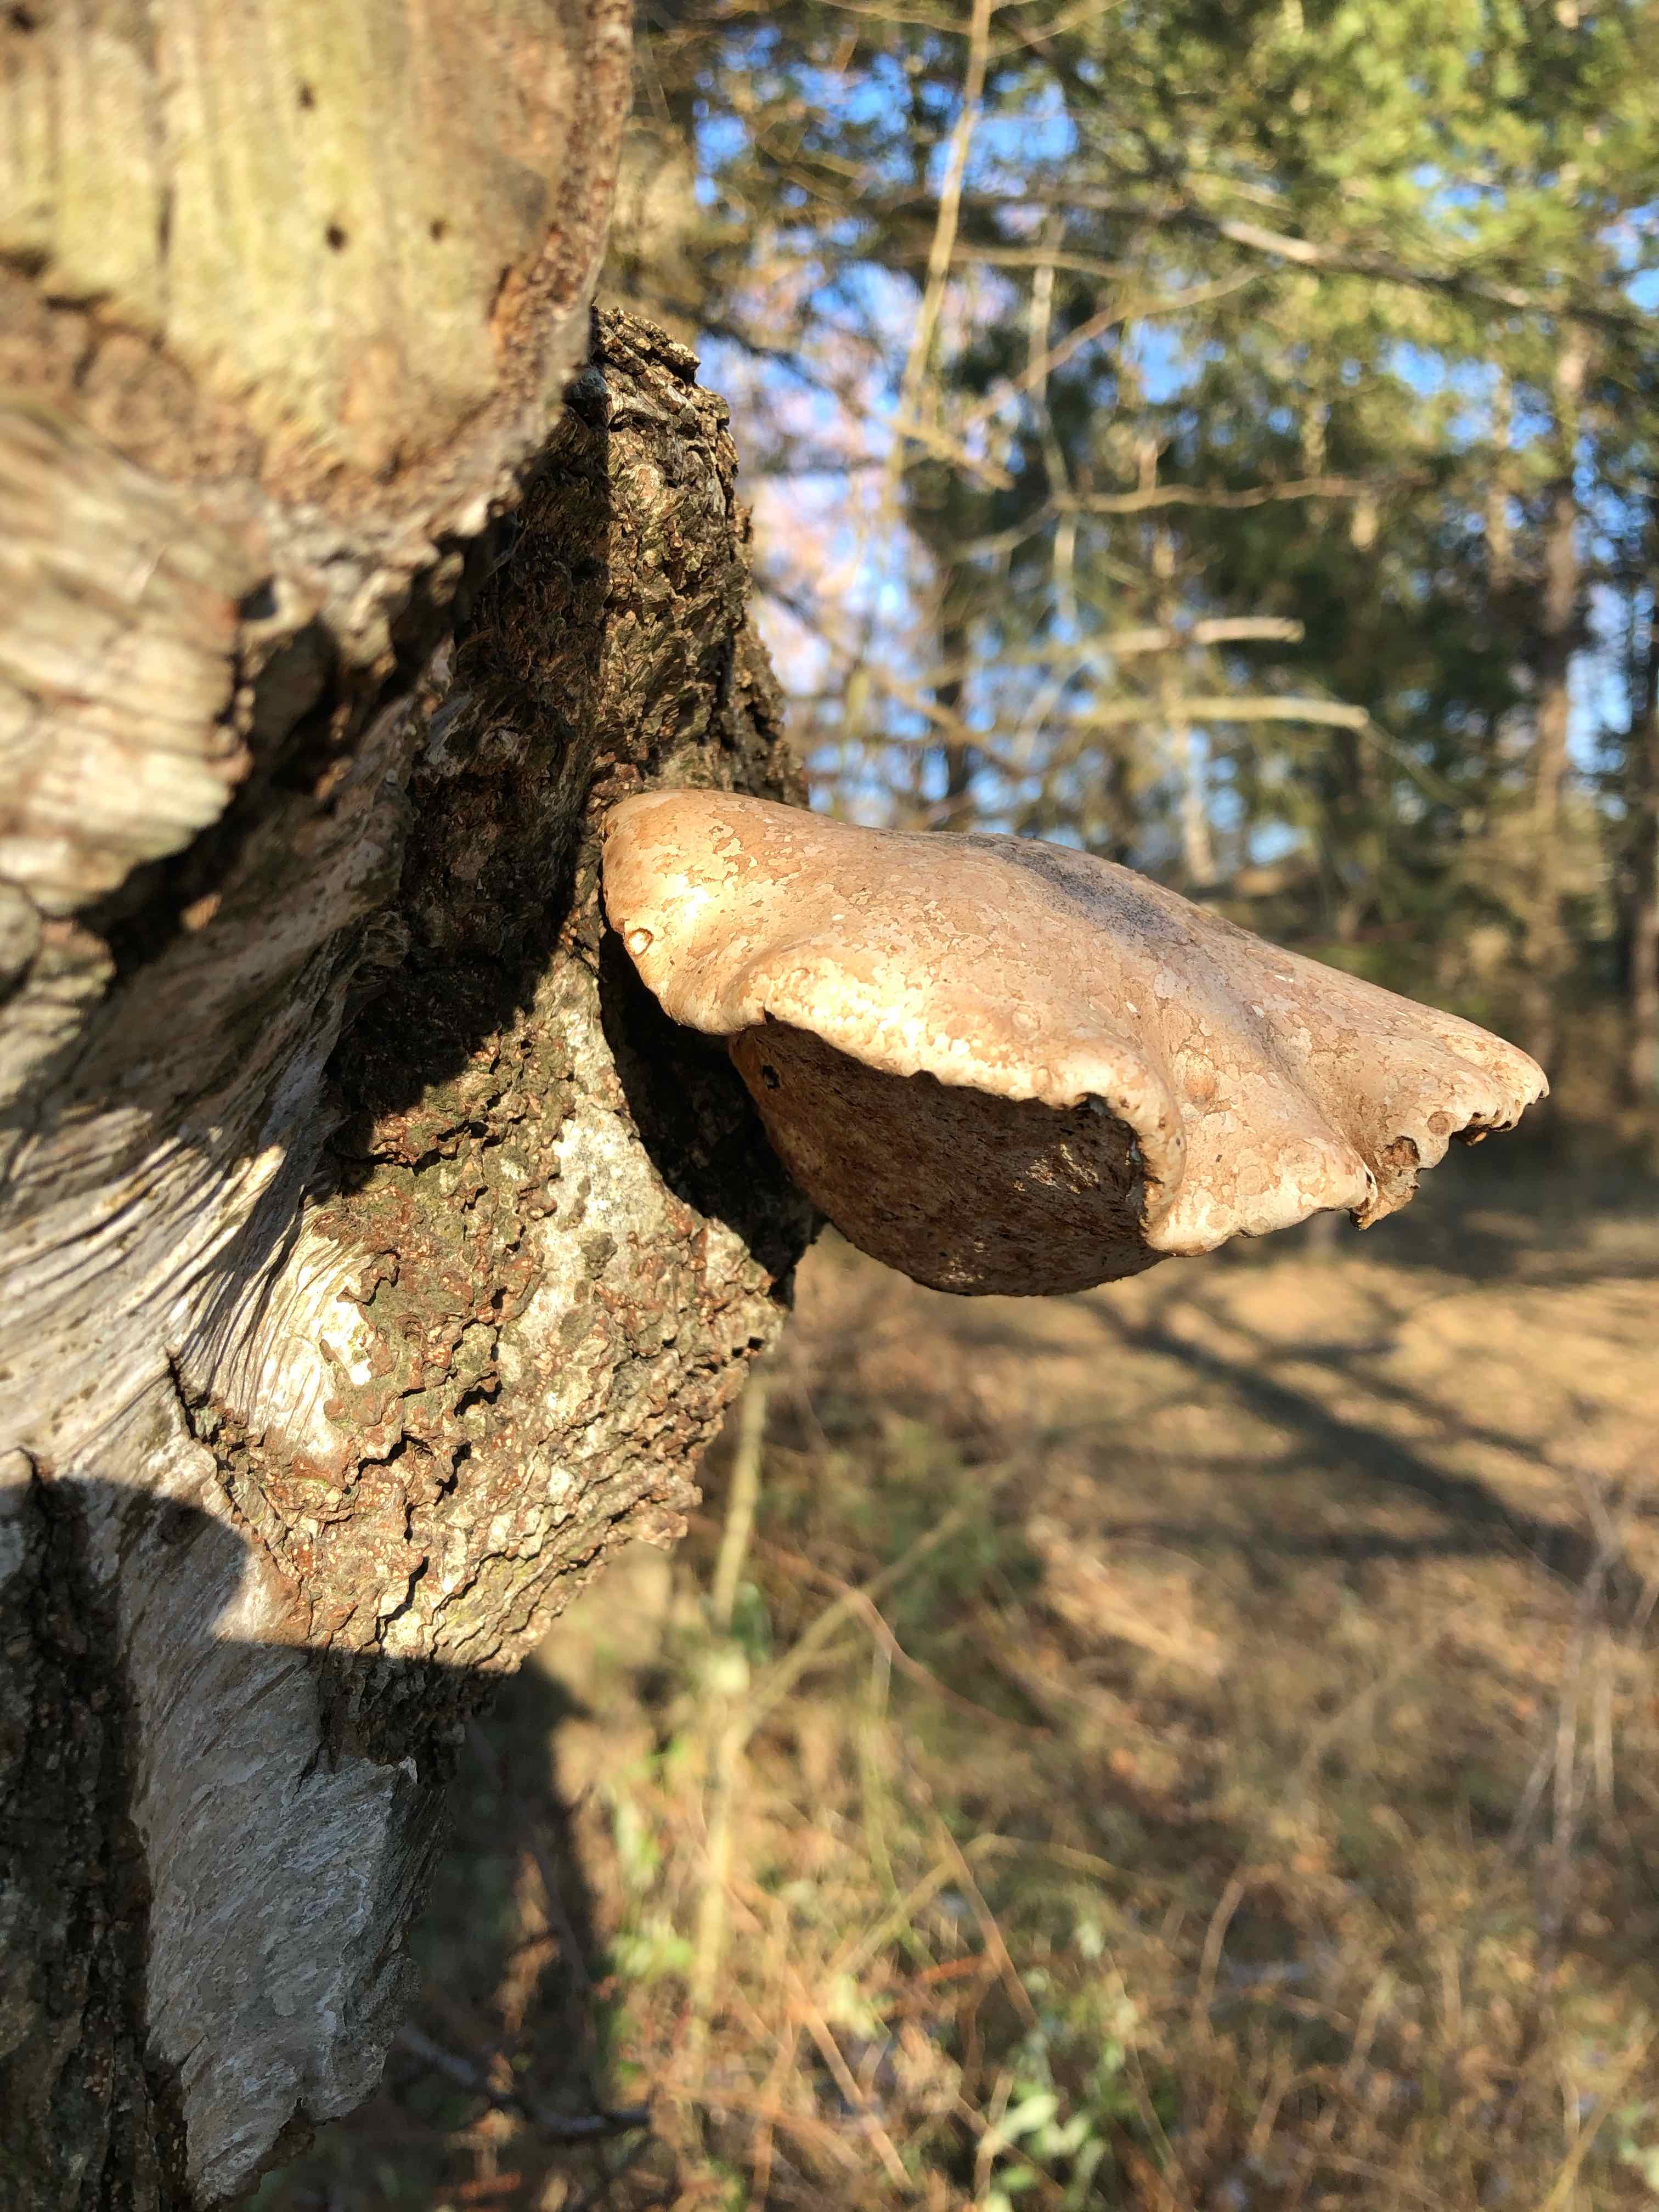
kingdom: Fungi
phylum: Basidiomycota
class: Agaricomycetes
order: Polyporales
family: Fomitopsidaceae
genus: Fomitopsis
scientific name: Fomitopsis betulina
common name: birkeporesvamp
